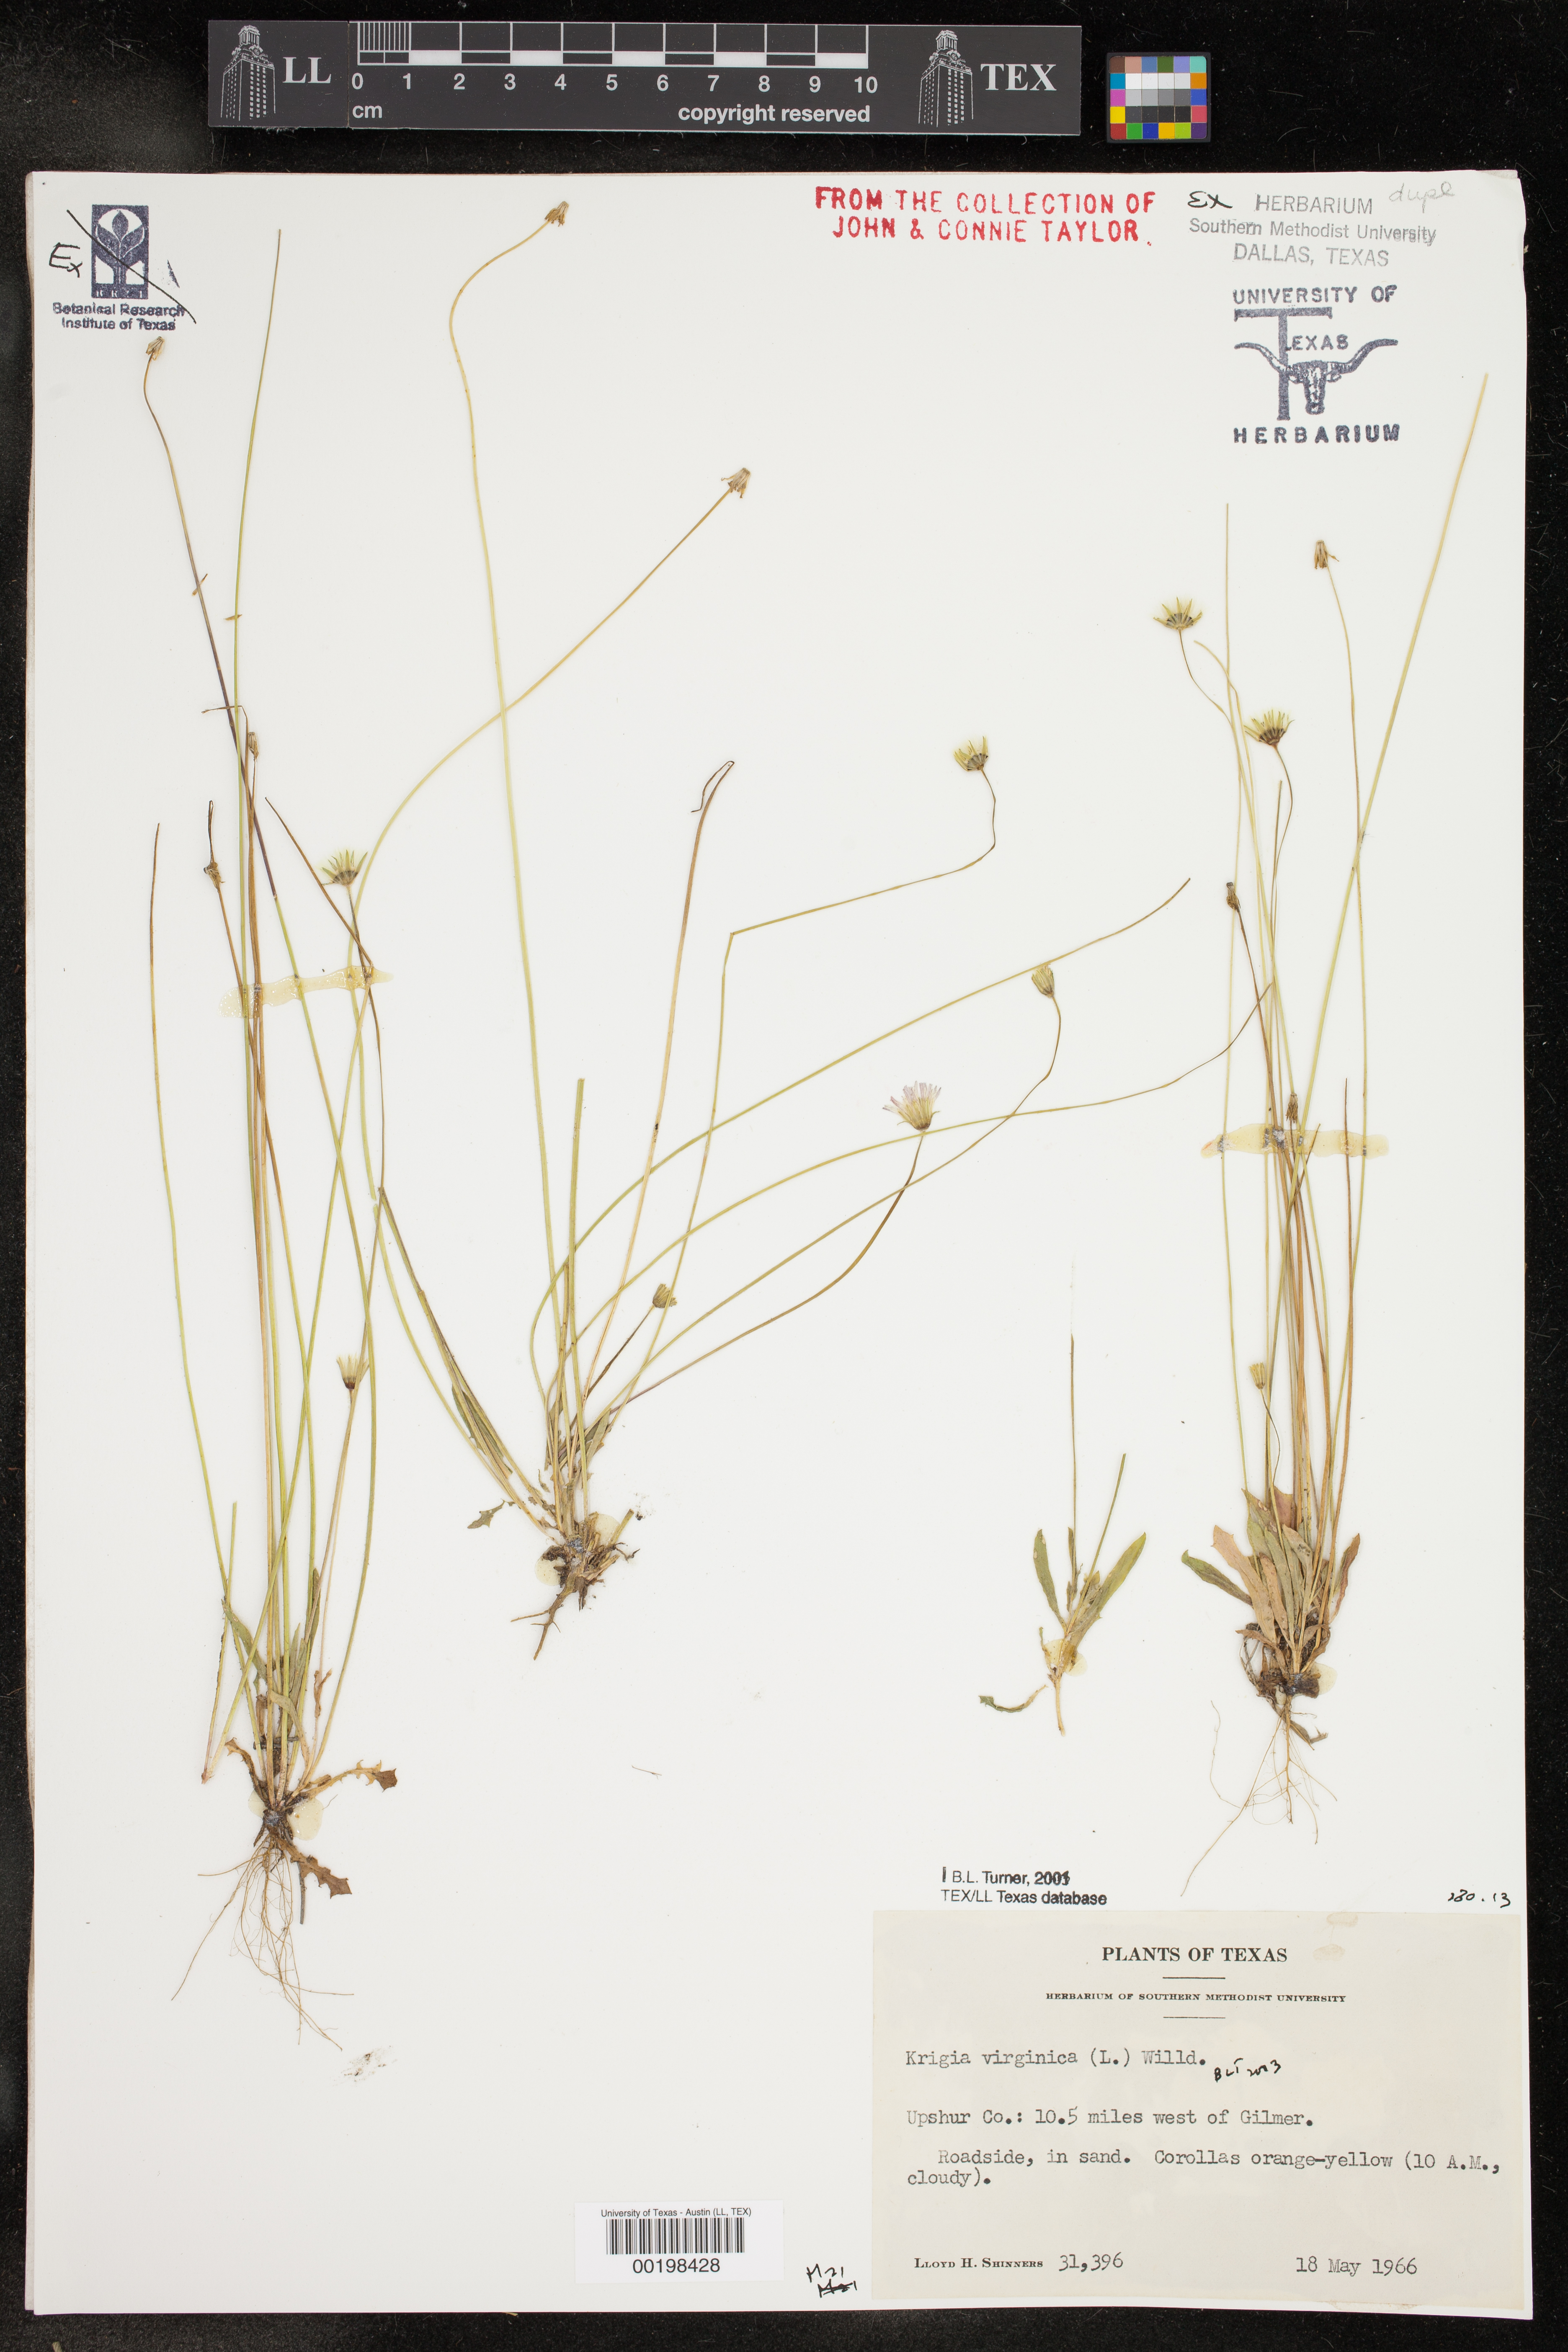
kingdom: Plantae
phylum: Tracheophyta
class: Magnoliopsida
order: Asterales
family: Asteraceae
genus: Krigia
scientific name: Krigia virginica
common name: Virginia dwarf-dandelion
